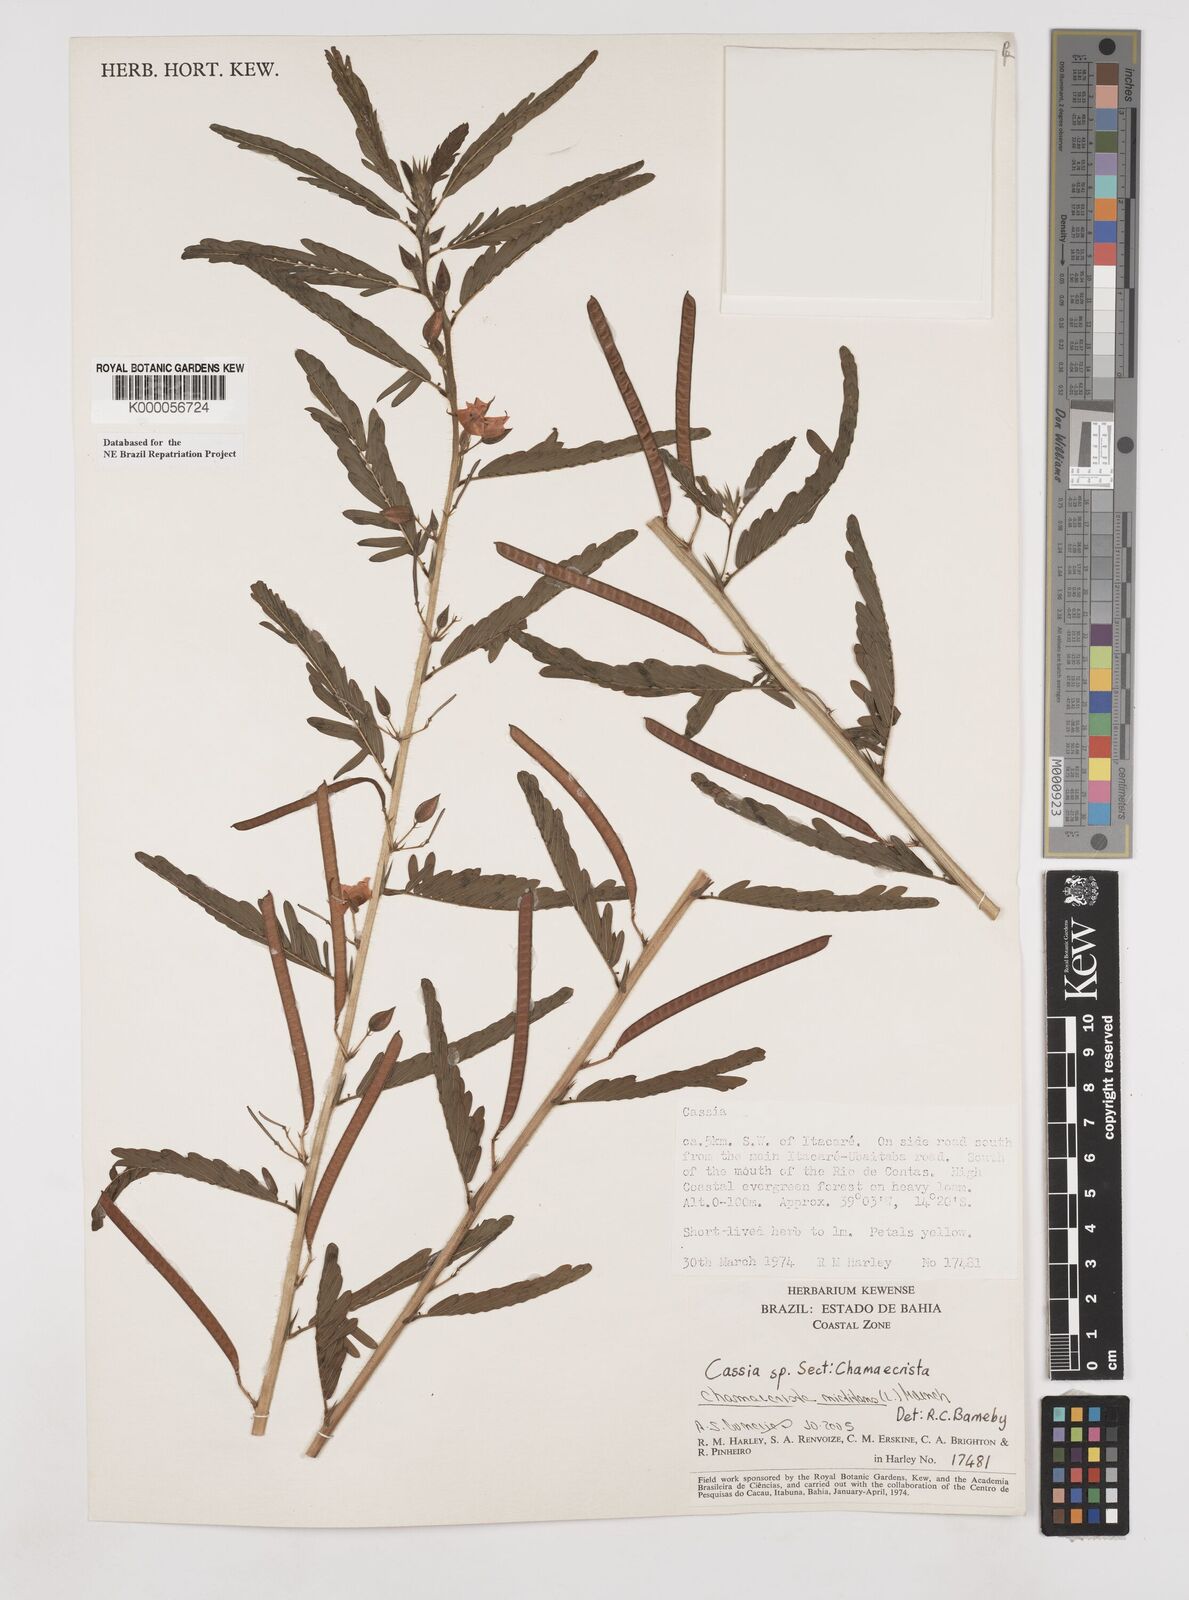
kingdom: Plantae
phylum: Tracheophyta
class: Magnoliopsida
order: Fabales
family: Fabaceae
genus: Chamaecrista
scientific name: Chamaecrista
